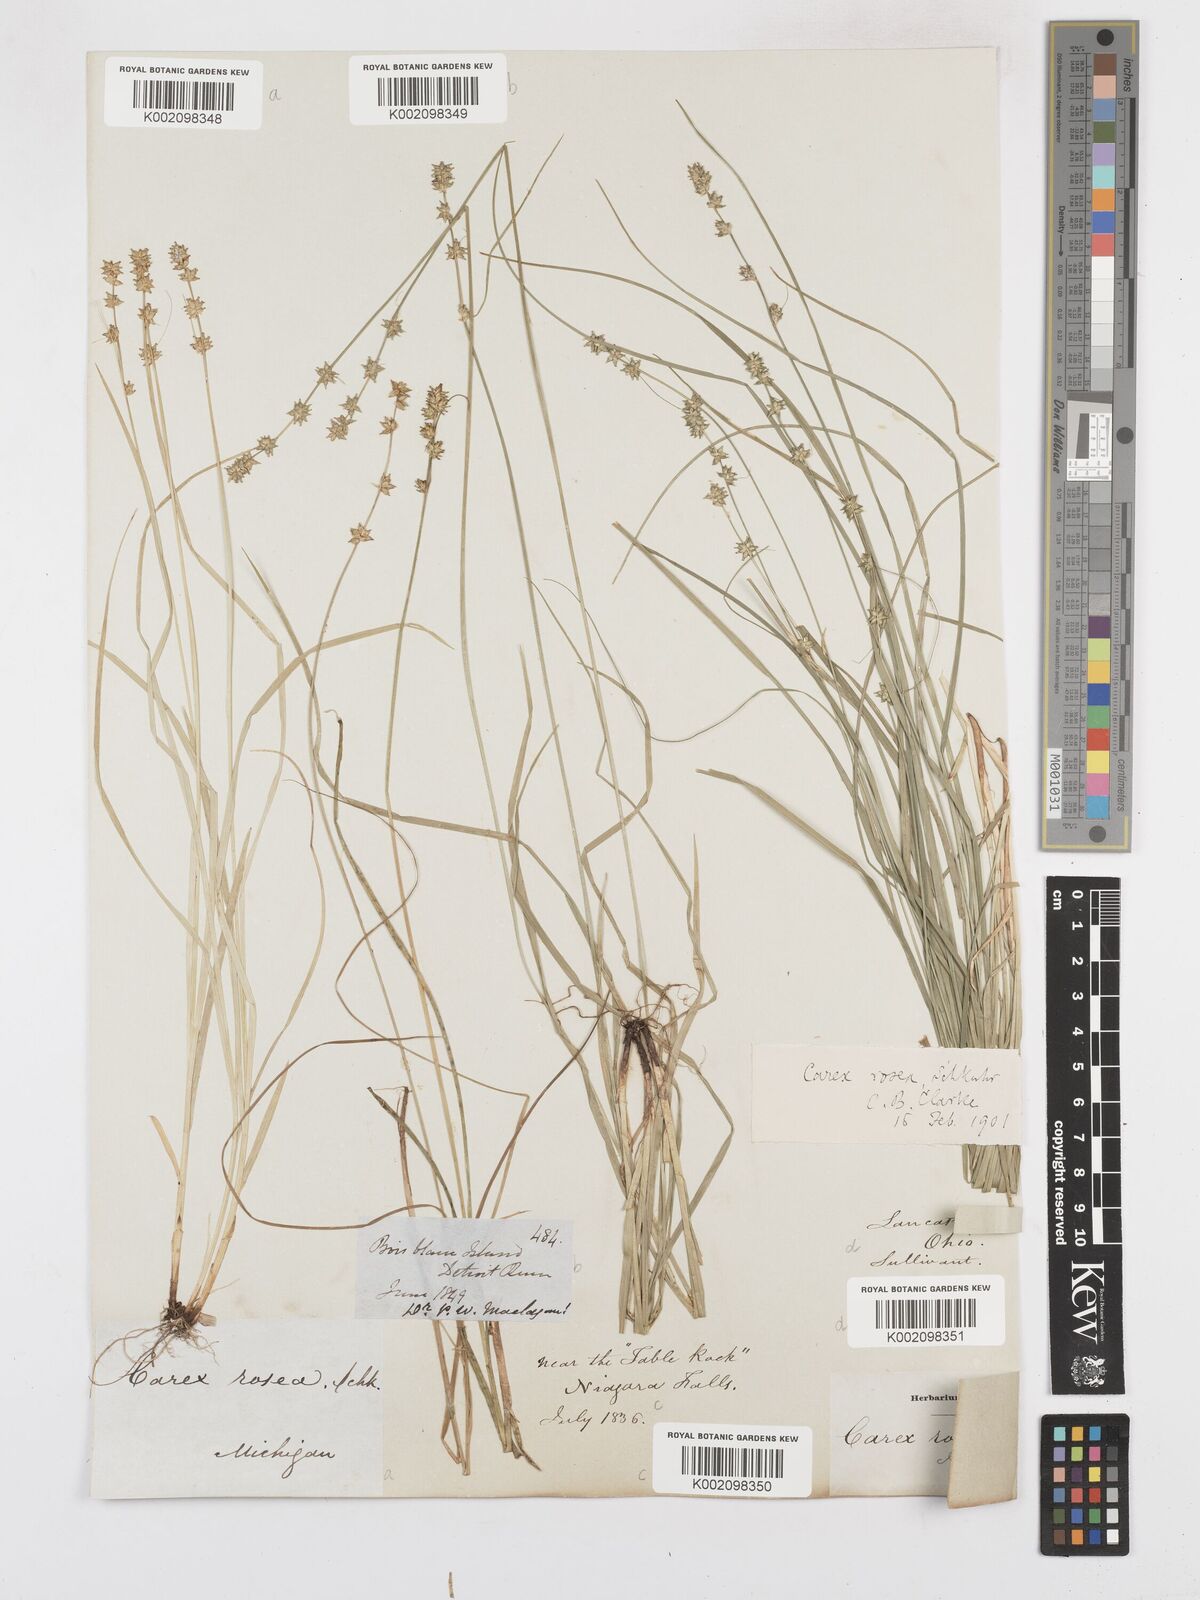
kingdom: Plantae
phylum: Tracheophyta
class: Liliopsida
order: Poales
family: Cyperaceae
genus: Carex
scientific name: Carex rosea
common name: Curly-styled wood sedge
